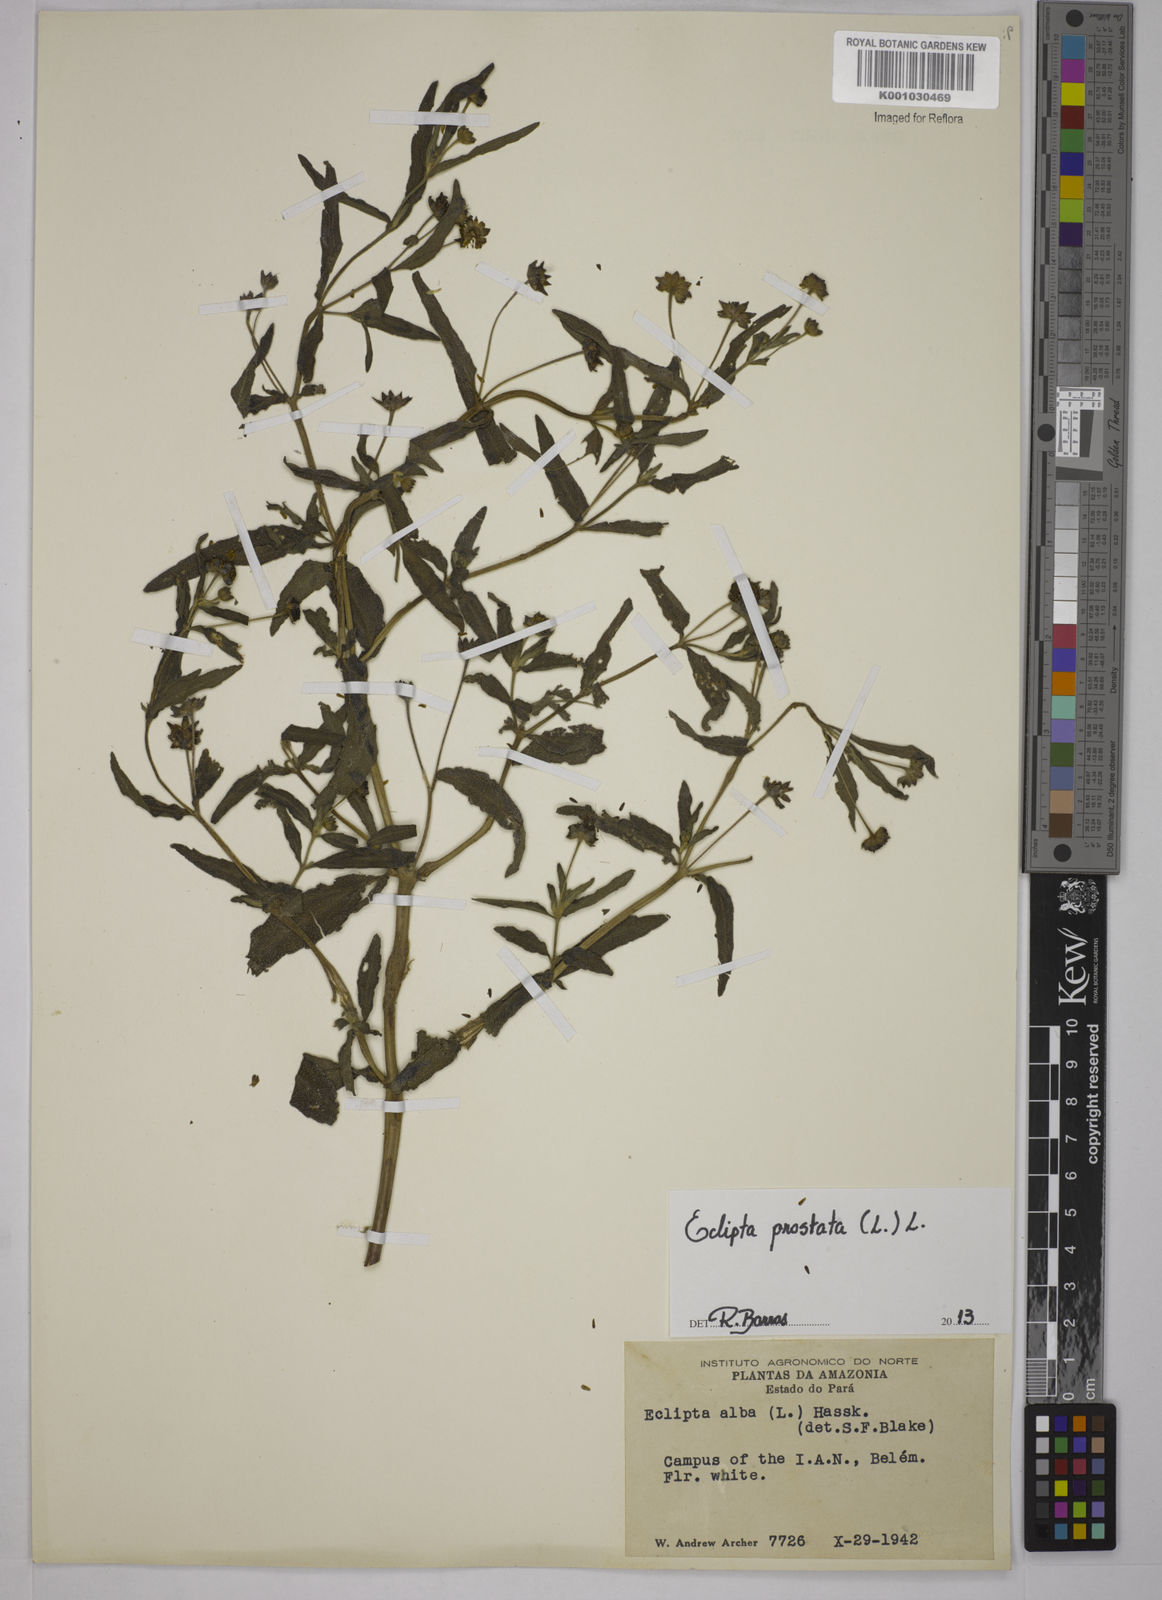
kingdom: Plantae
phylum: Tracheophyta
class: Magnoliopsida
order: Asterales
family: Asteraceae
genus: Eclipta
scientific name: Eclipta prostrata
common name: False daisy
